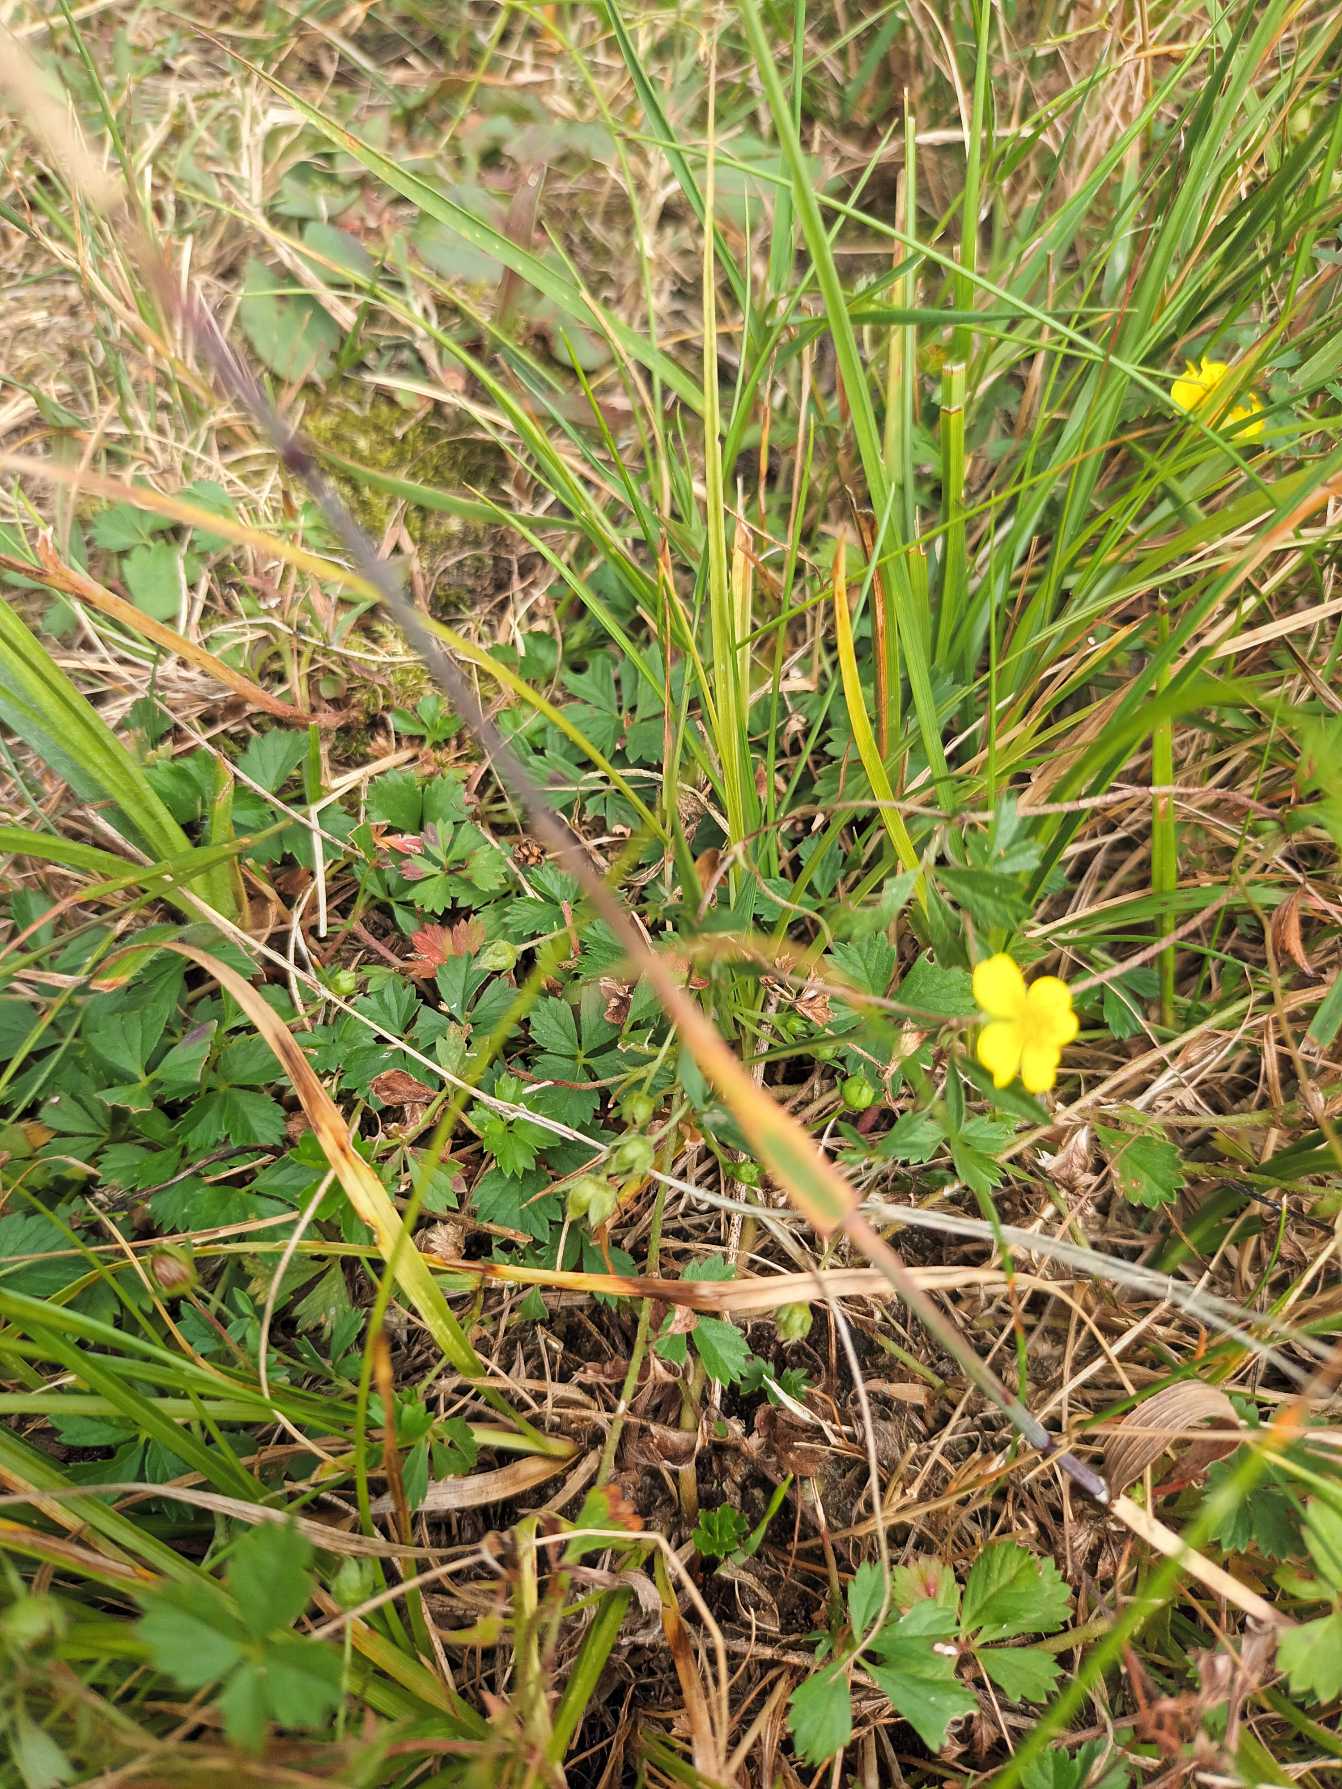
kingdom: Plantae
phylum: Tracheophyta
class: Magnoliopsida
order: Rosales
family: Rosaceae
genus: Potentilla
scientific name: Potentilla anglica
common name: Liggende potentil
